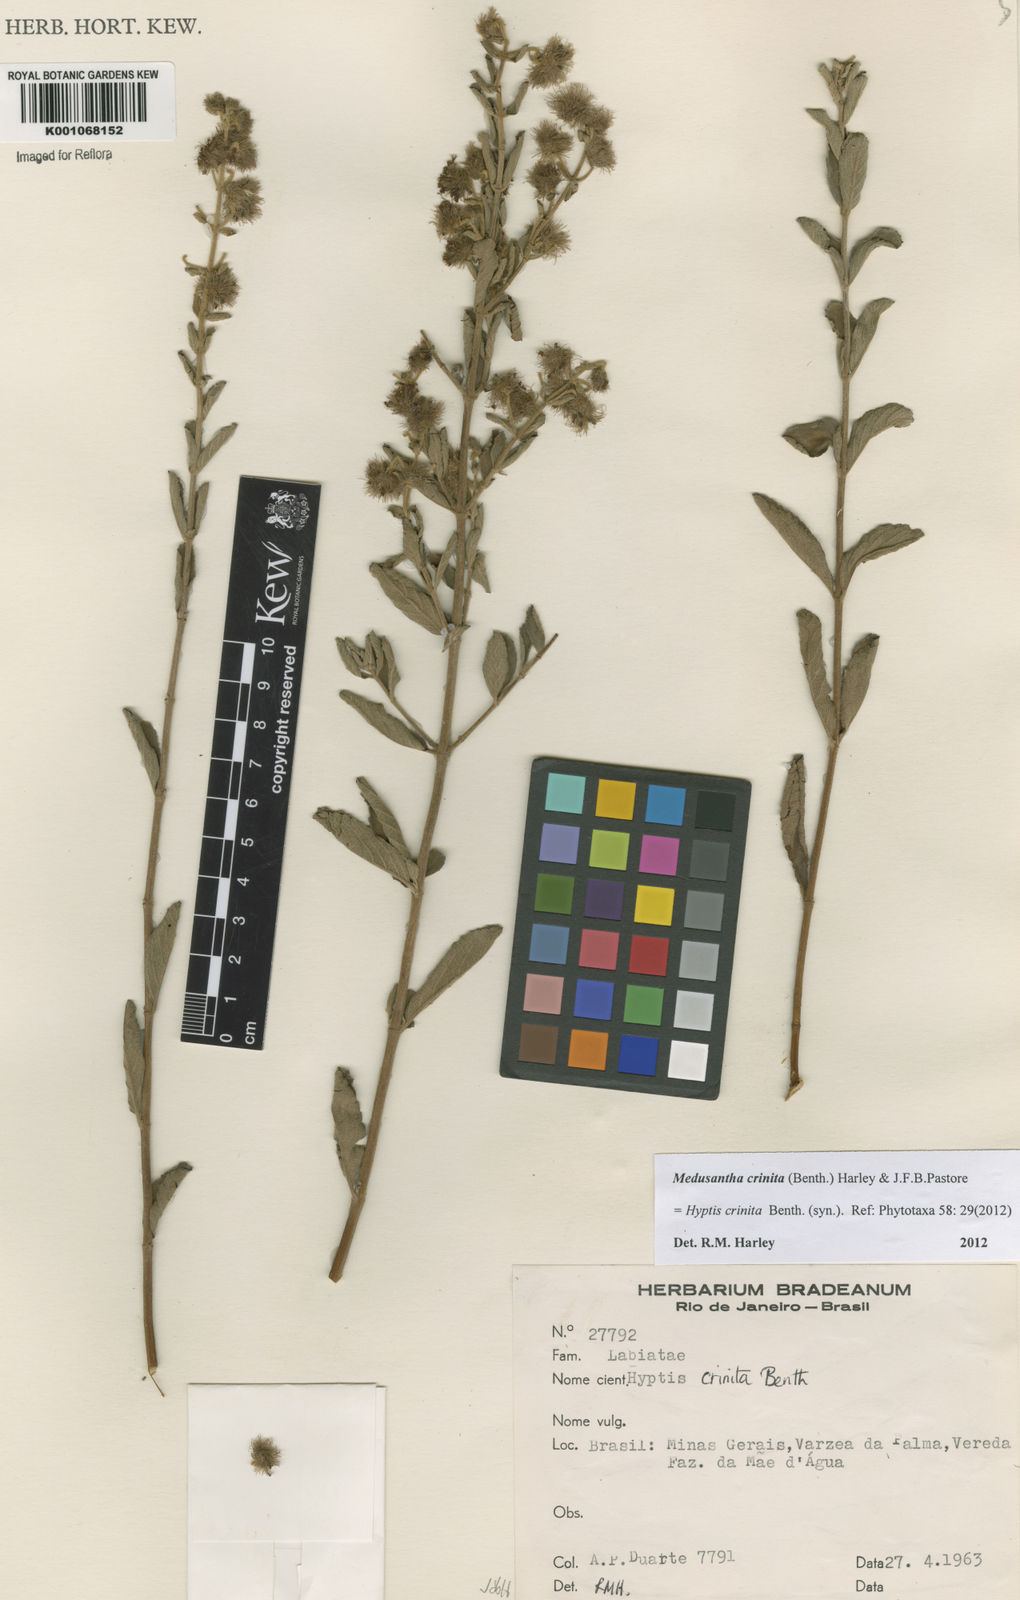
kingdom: Plantae
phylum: Tracheophyta
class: Magnoliopsida
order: Lamiales
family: Lamiaceae
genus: Medusantha
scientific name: Medusantha crinita
